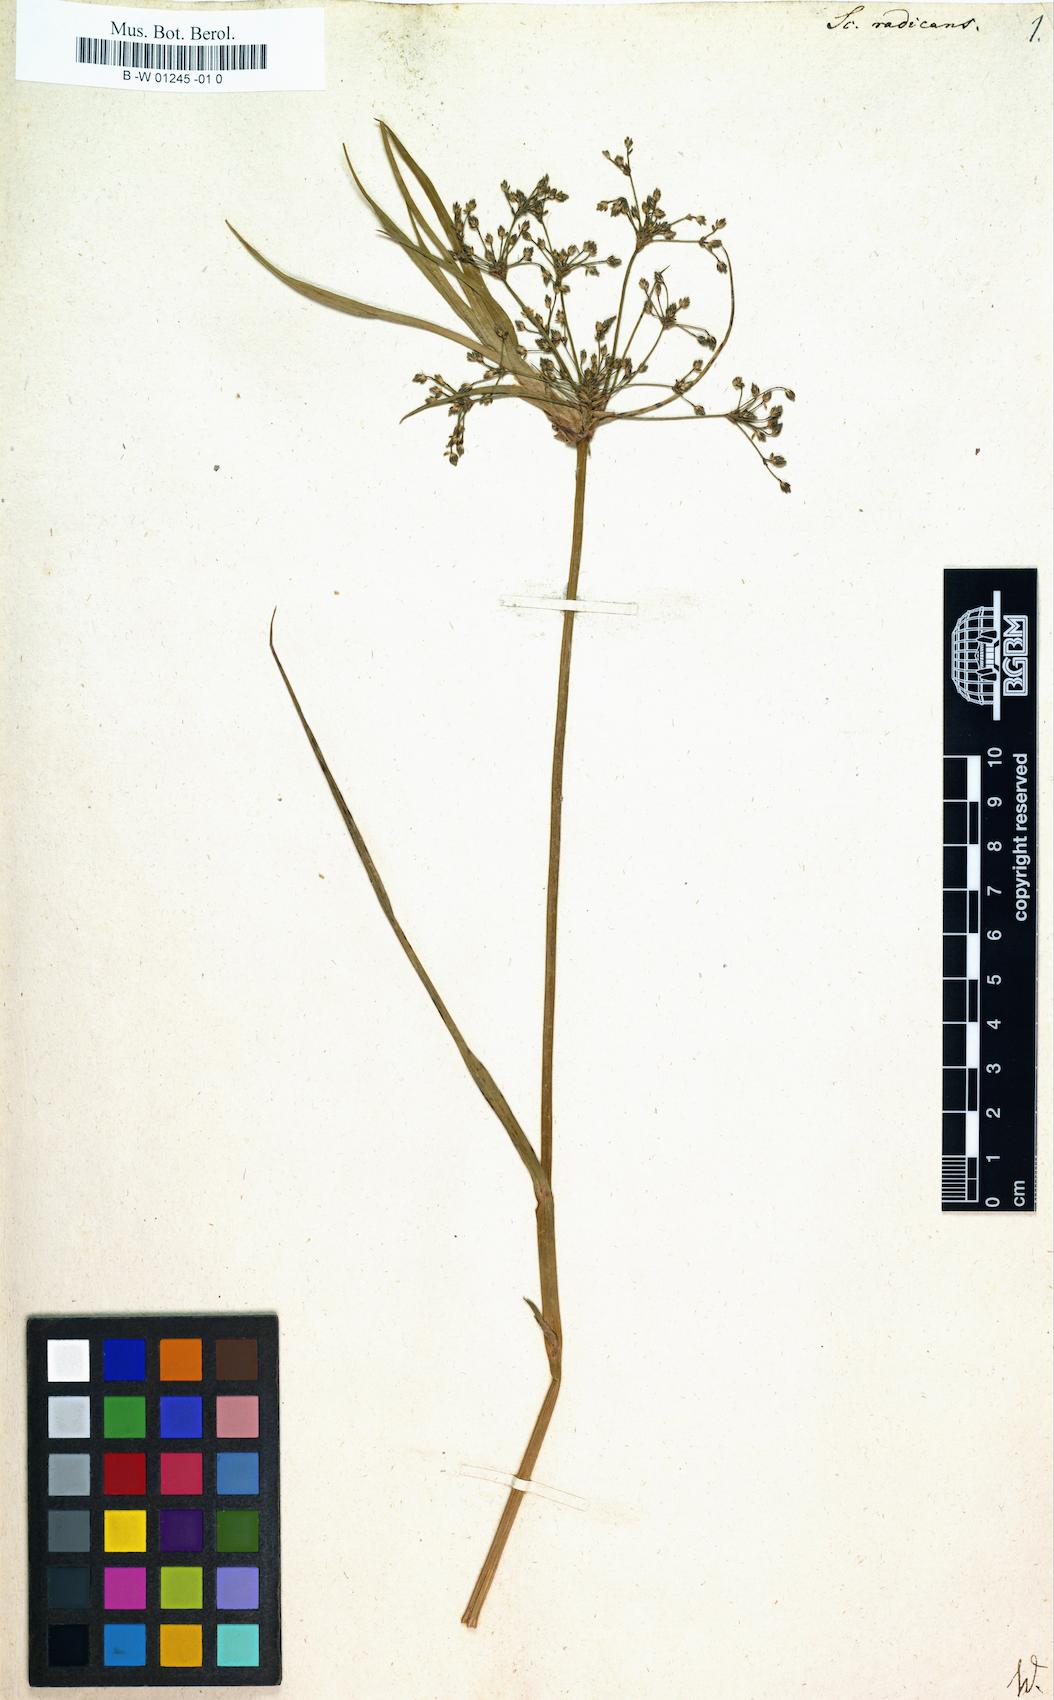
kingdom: Plantae
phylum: Tracheophyta
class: Liliopsida
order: Poales
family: Cyperaceae
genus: Scirpus
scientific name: Scirpus radicans
